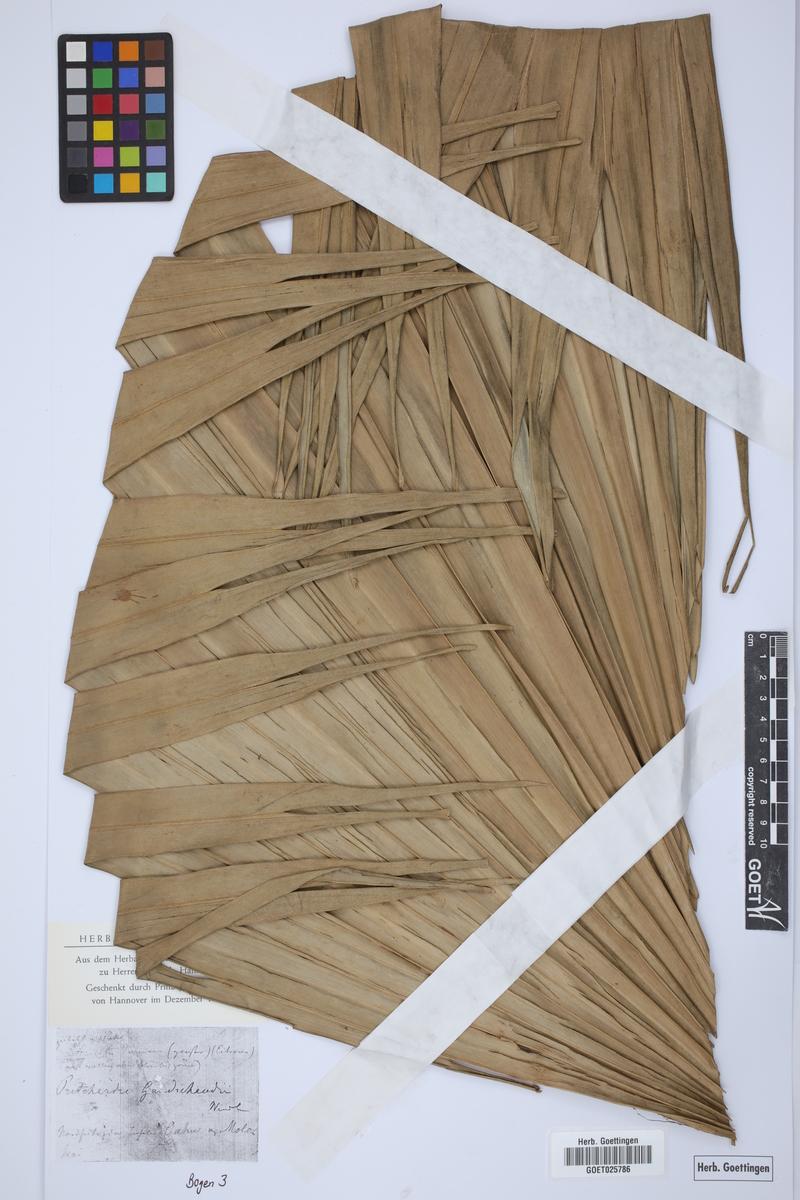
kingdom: Plantae
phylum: Tracheophyta
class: Liliopsida
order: Arecales
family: Arecaceae
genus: Pritchardia
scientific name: Pritchardia martii
